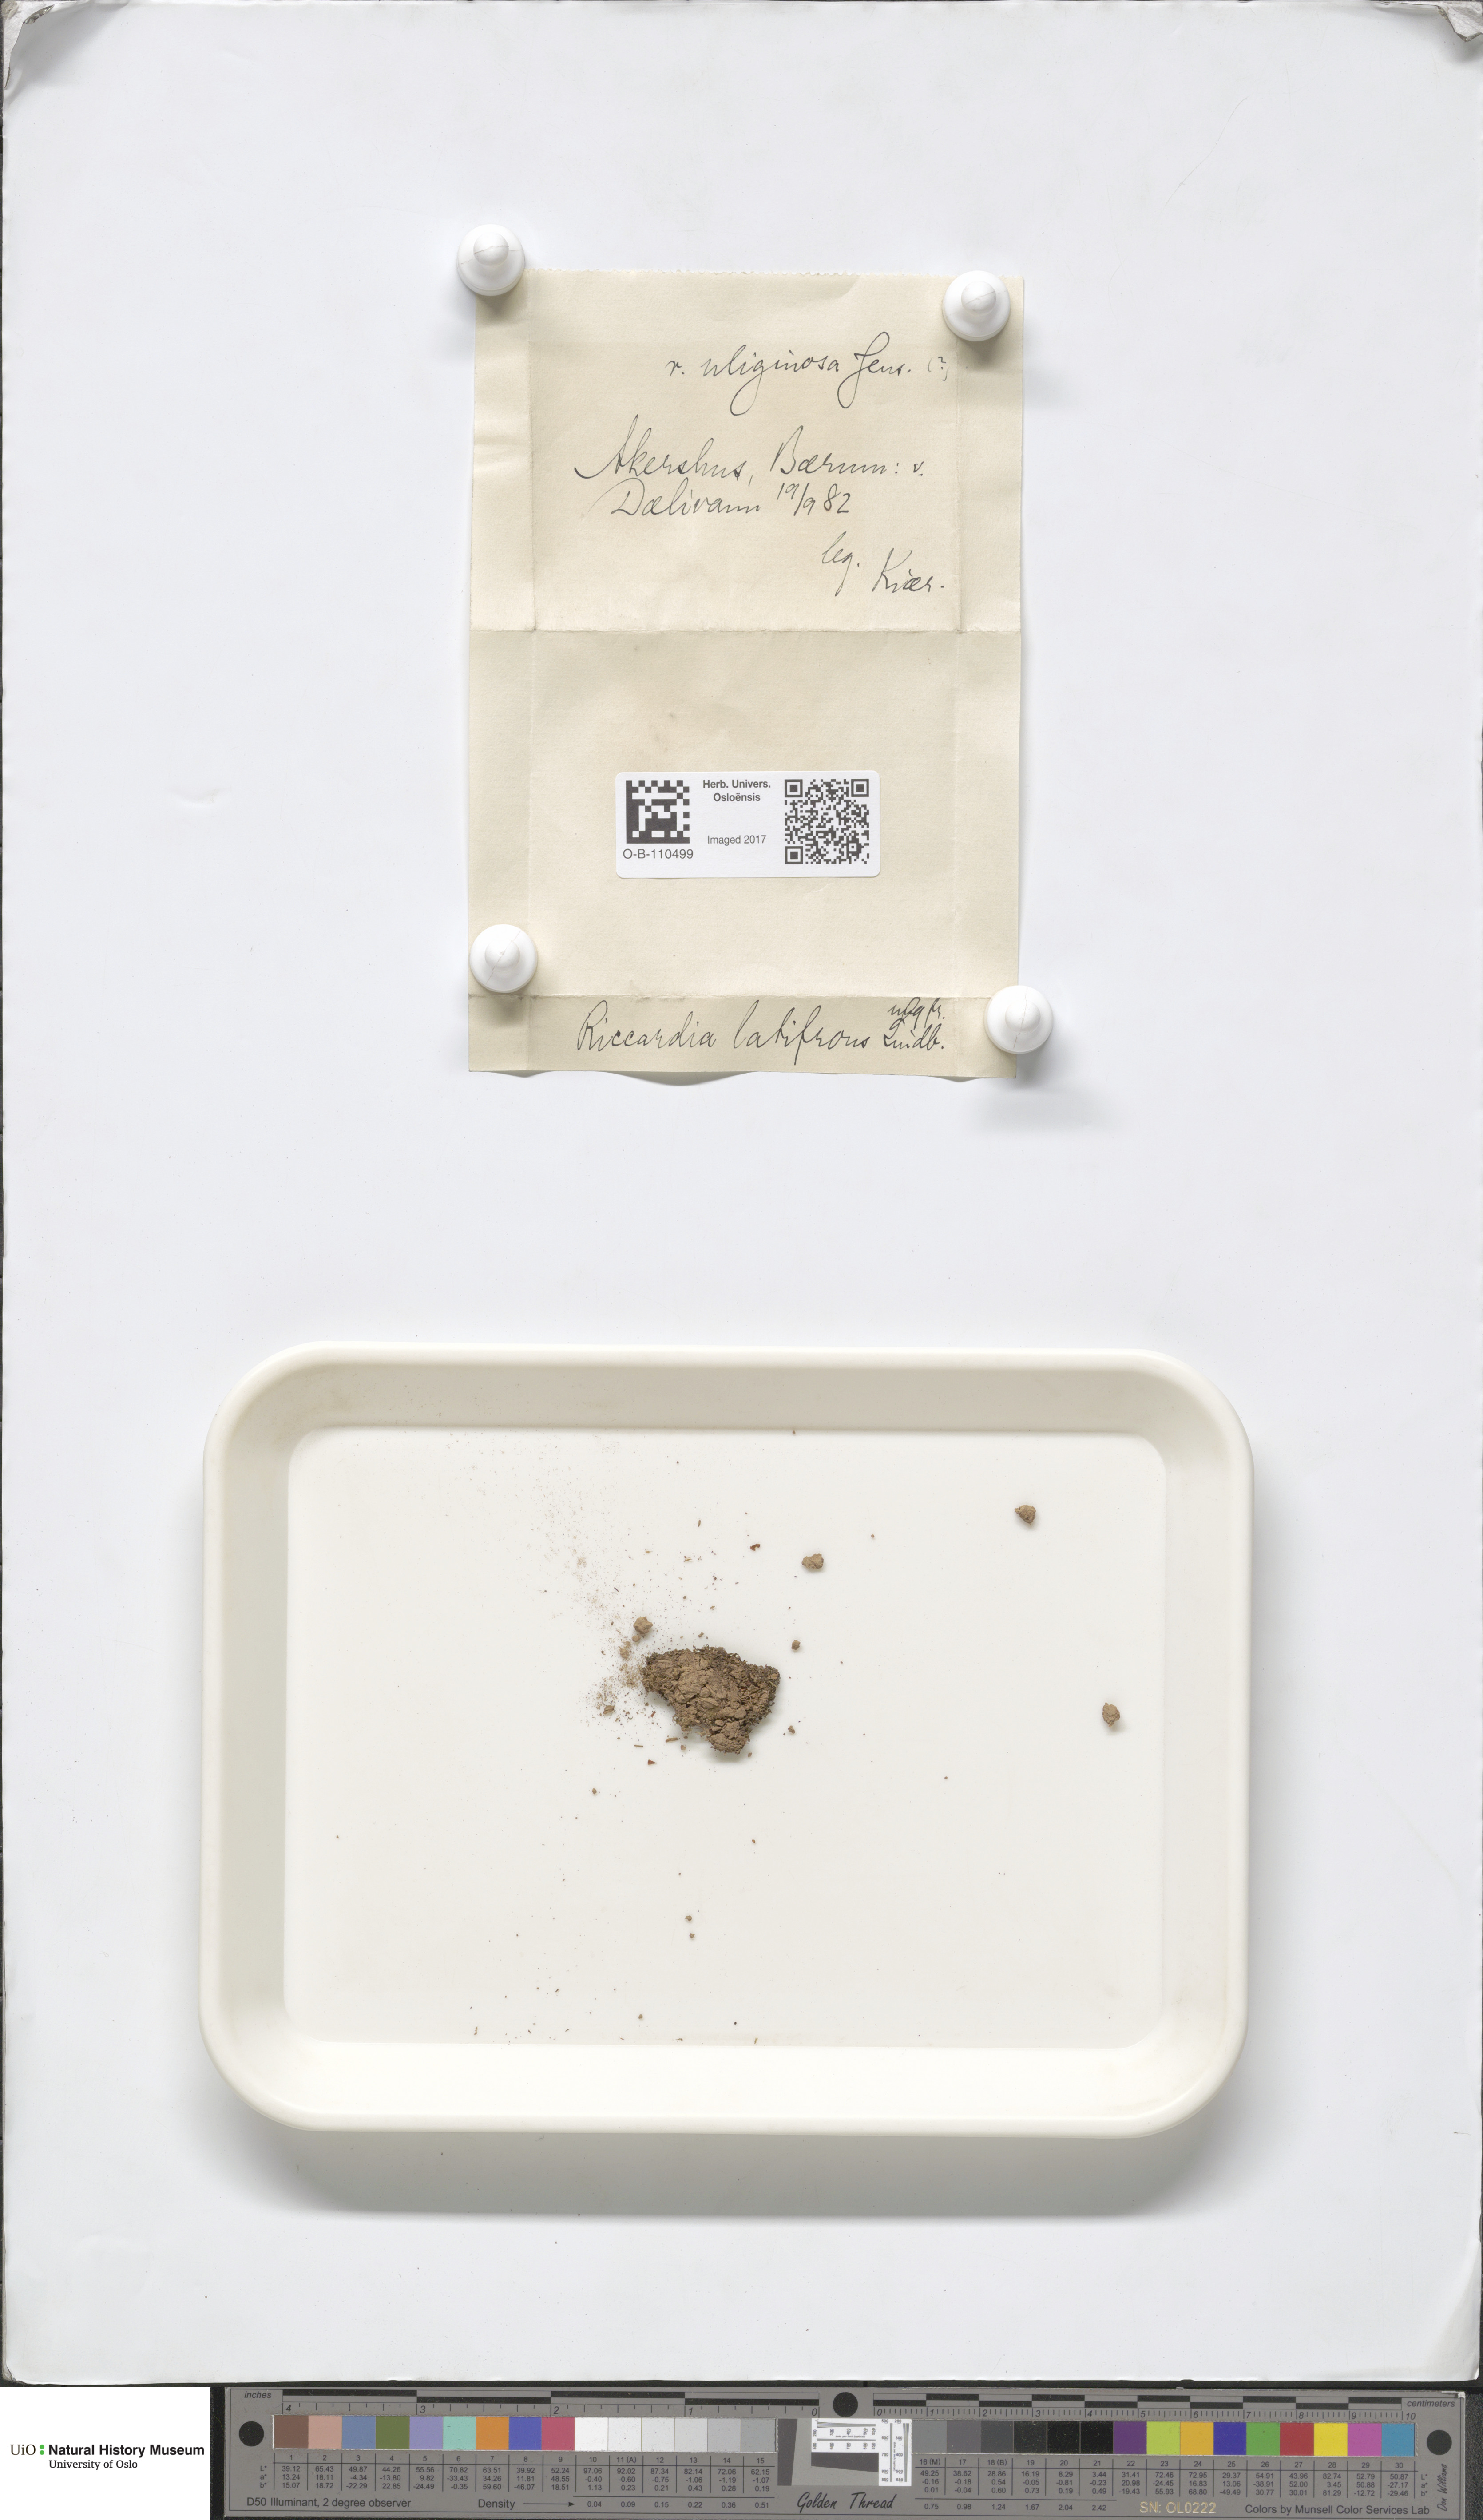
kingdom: Plantae
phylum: Marchantiophyta
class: Jungermanniopsida
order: Metzgeriales
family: Aneuraceae
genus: Riccardia
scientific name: Riccardia latifrons
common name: Bog germanderwort
